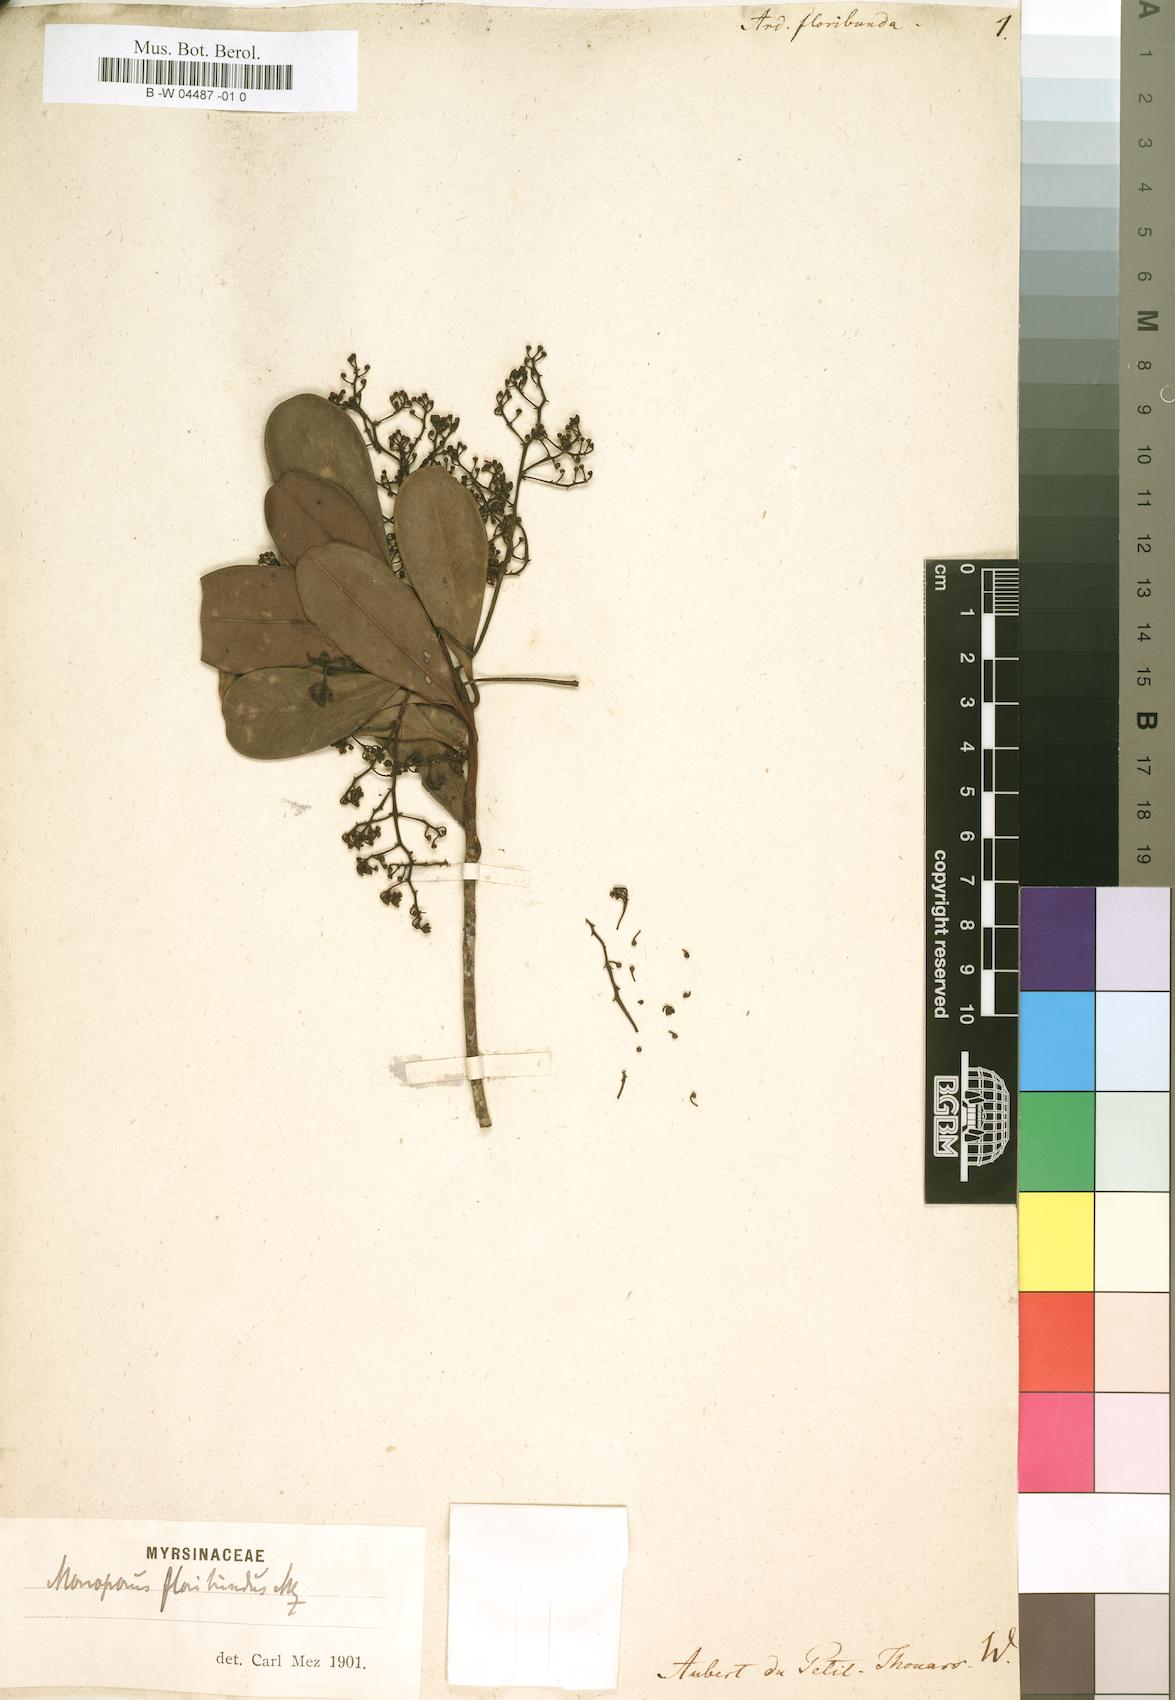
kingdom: Plantae
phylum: Tracheophyta
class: Magnoliopsida
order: Ericales
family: Primulaceae
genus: Ardisia
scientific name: Ardisia floribunda
